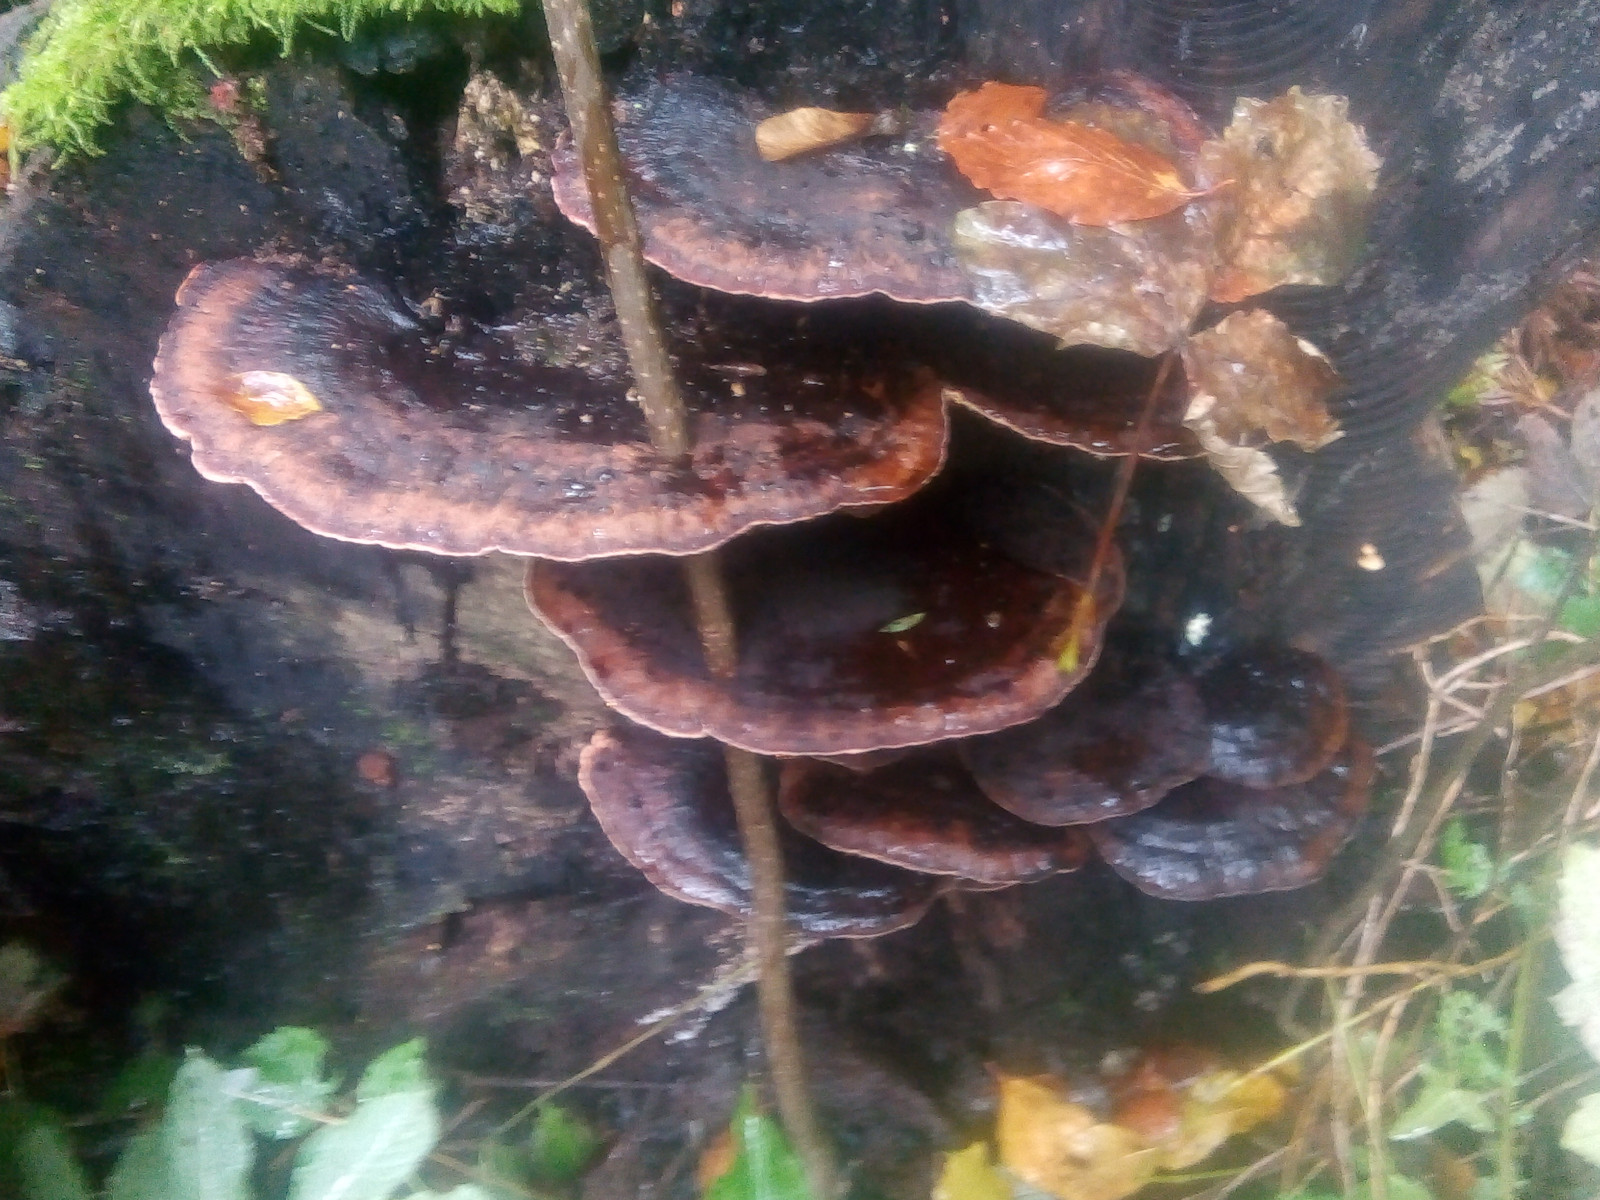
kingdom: Fungi
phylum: Basidiomycota
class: Agaricomycetes
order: Polyporales
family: Ischnodermataceae
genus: Ischnoderma
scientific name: Ischnoderma resinosum
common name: løv-tjæreporesvamp
